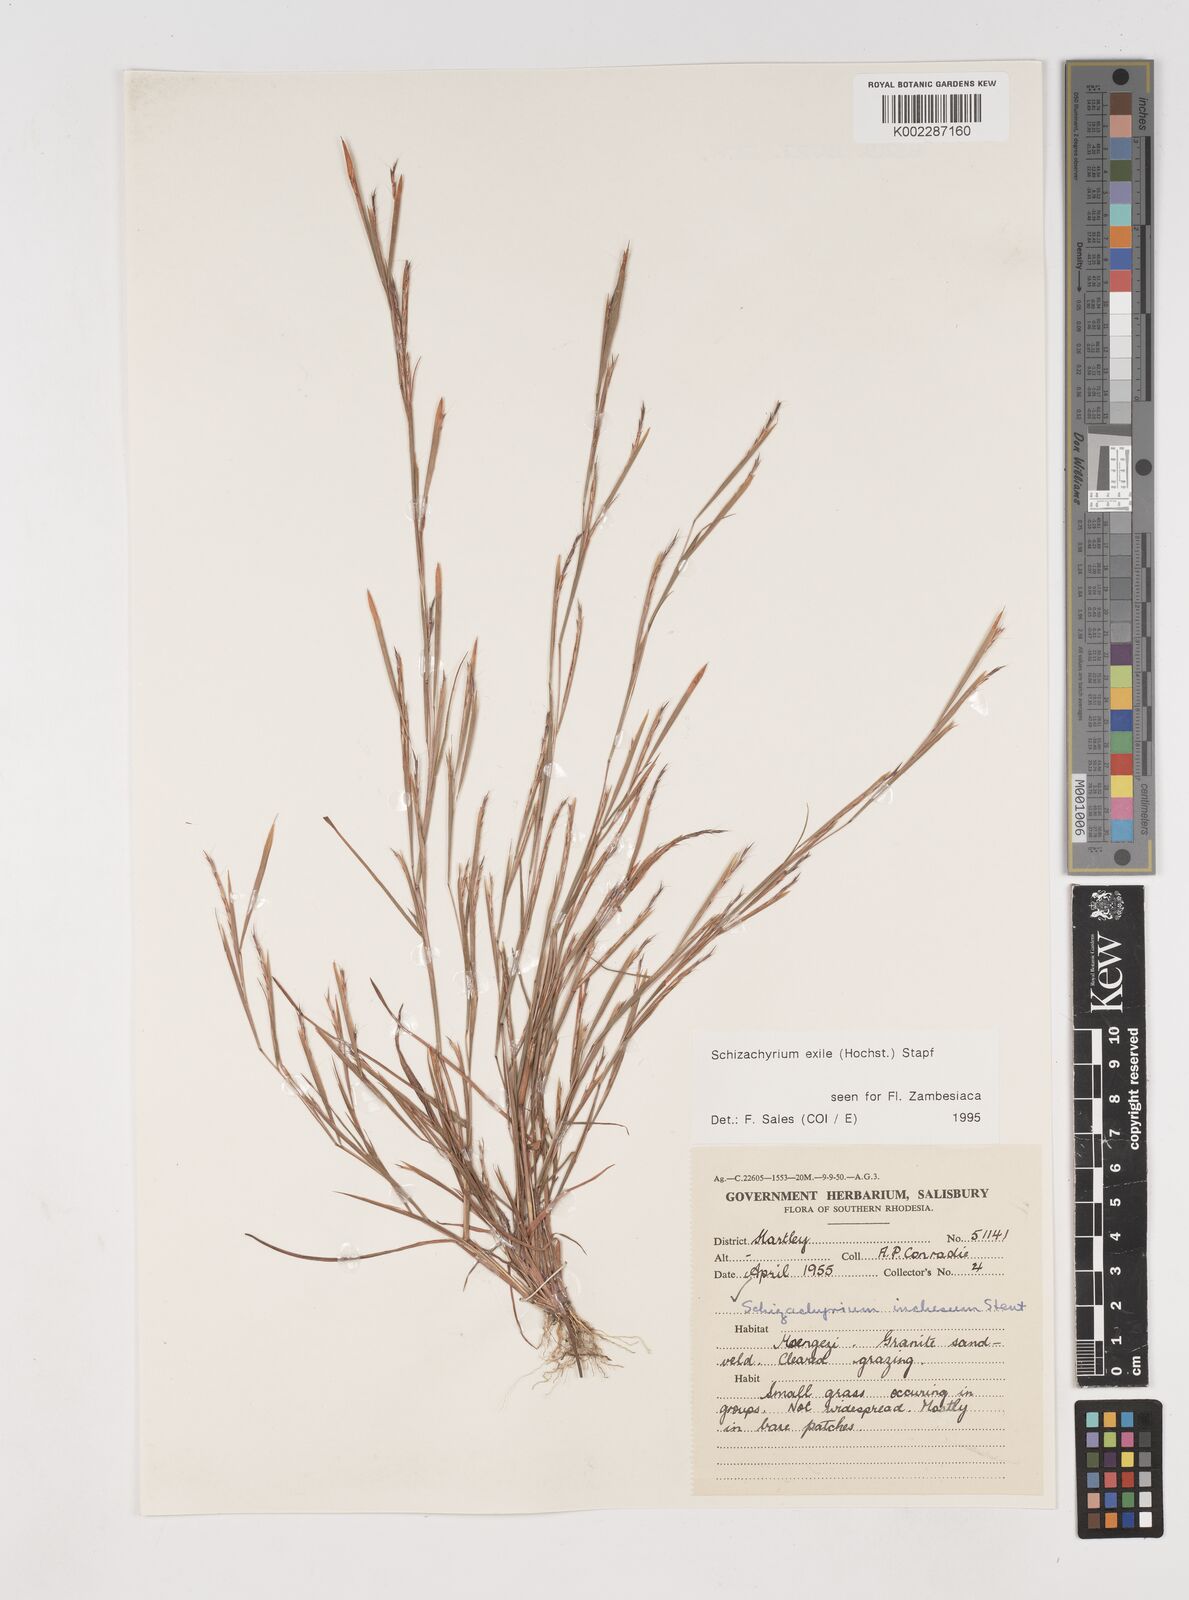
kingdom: Plantae
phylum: Tracheophyta
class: Liliopsida
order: Poales
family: Poaceae
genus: Schizachyrium
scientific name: Schizachyrium exile
